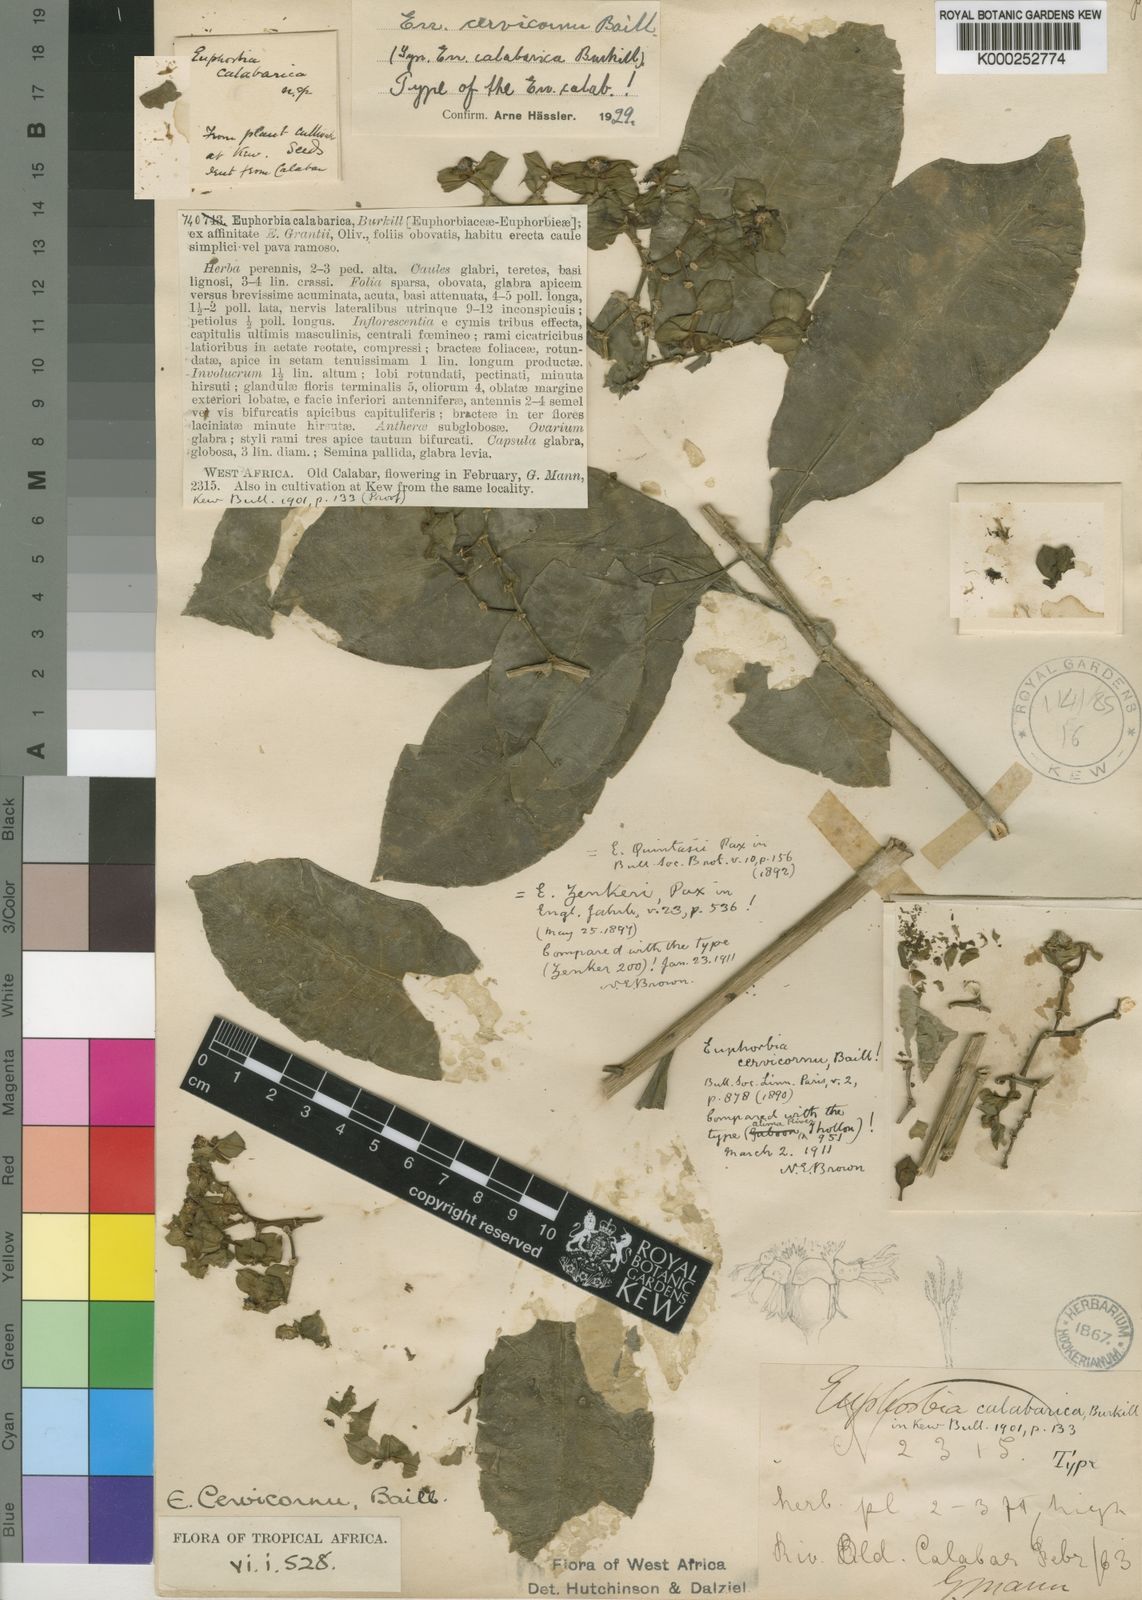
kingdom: Plantae
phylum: Tracheophyta
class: Magnoliopsida
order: Malpighiales
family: Euphorbiaceae
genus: Euphorbia
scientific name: Euphorbia cervicornu
